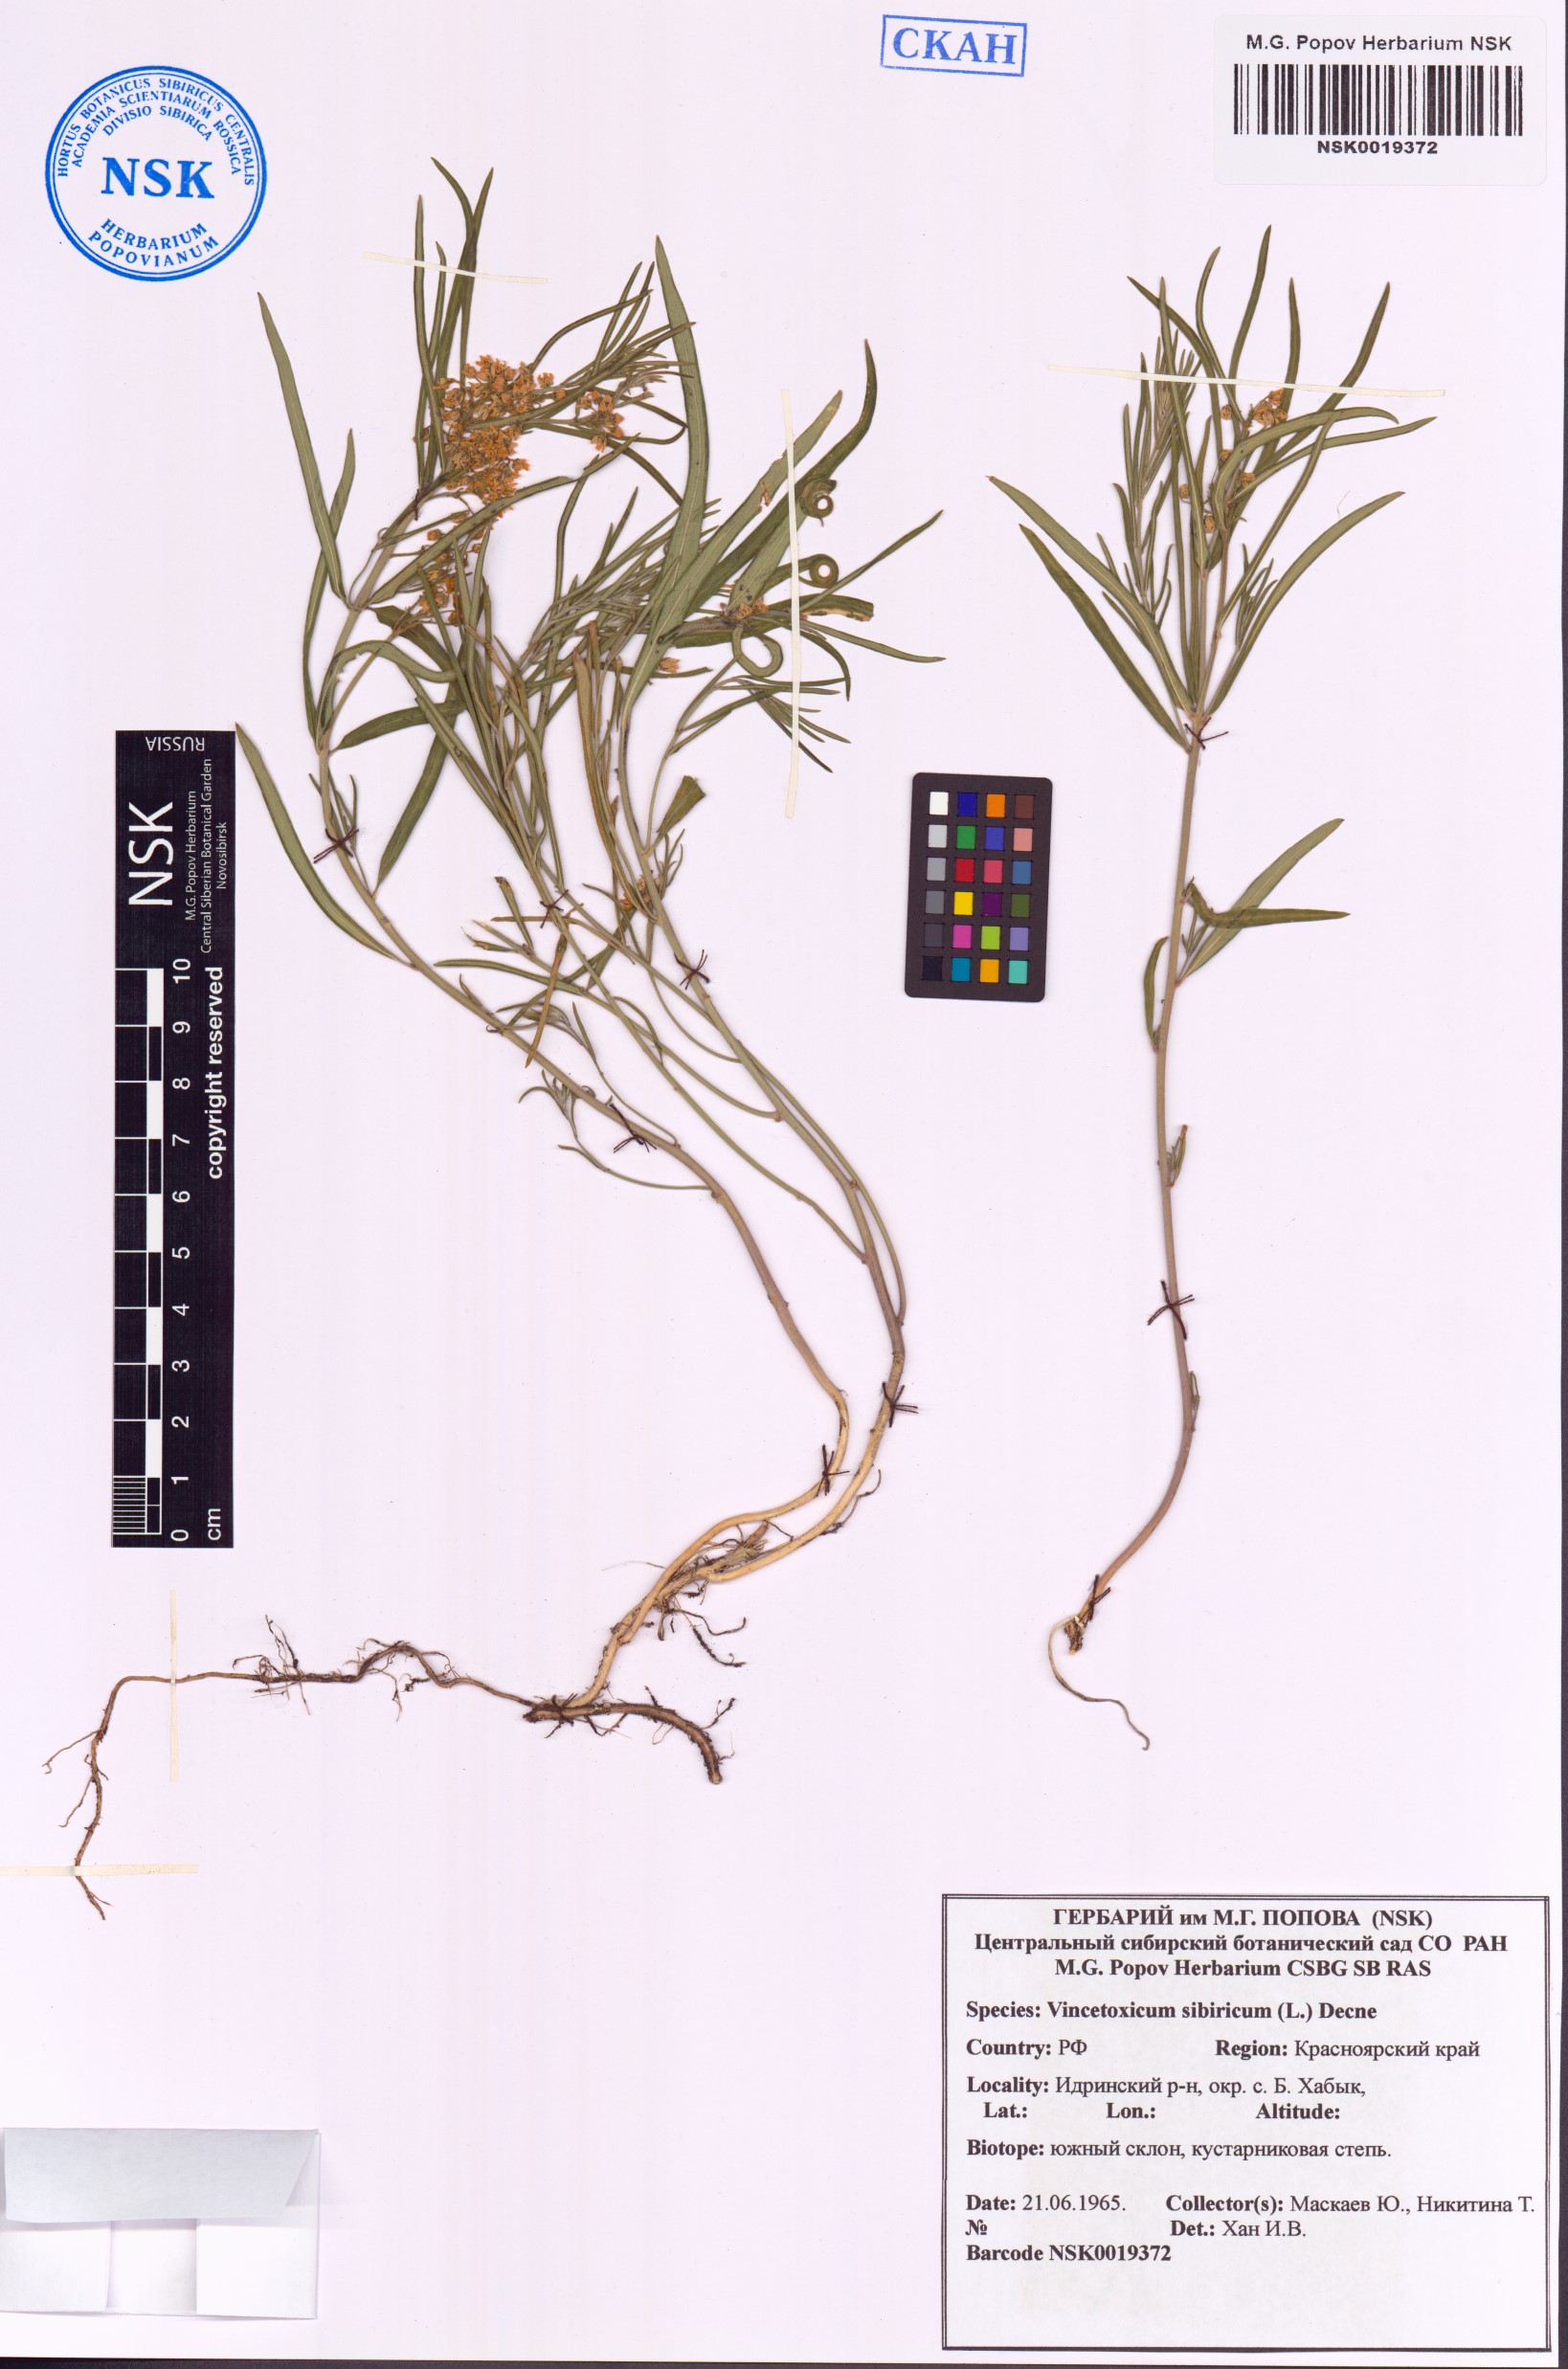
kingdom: Plantae
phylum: Tracheophyta
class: Magnoliopsida
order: Gentianales
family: Apocynaceae
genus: Cynanchum
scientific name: Cynanchum thesioides
